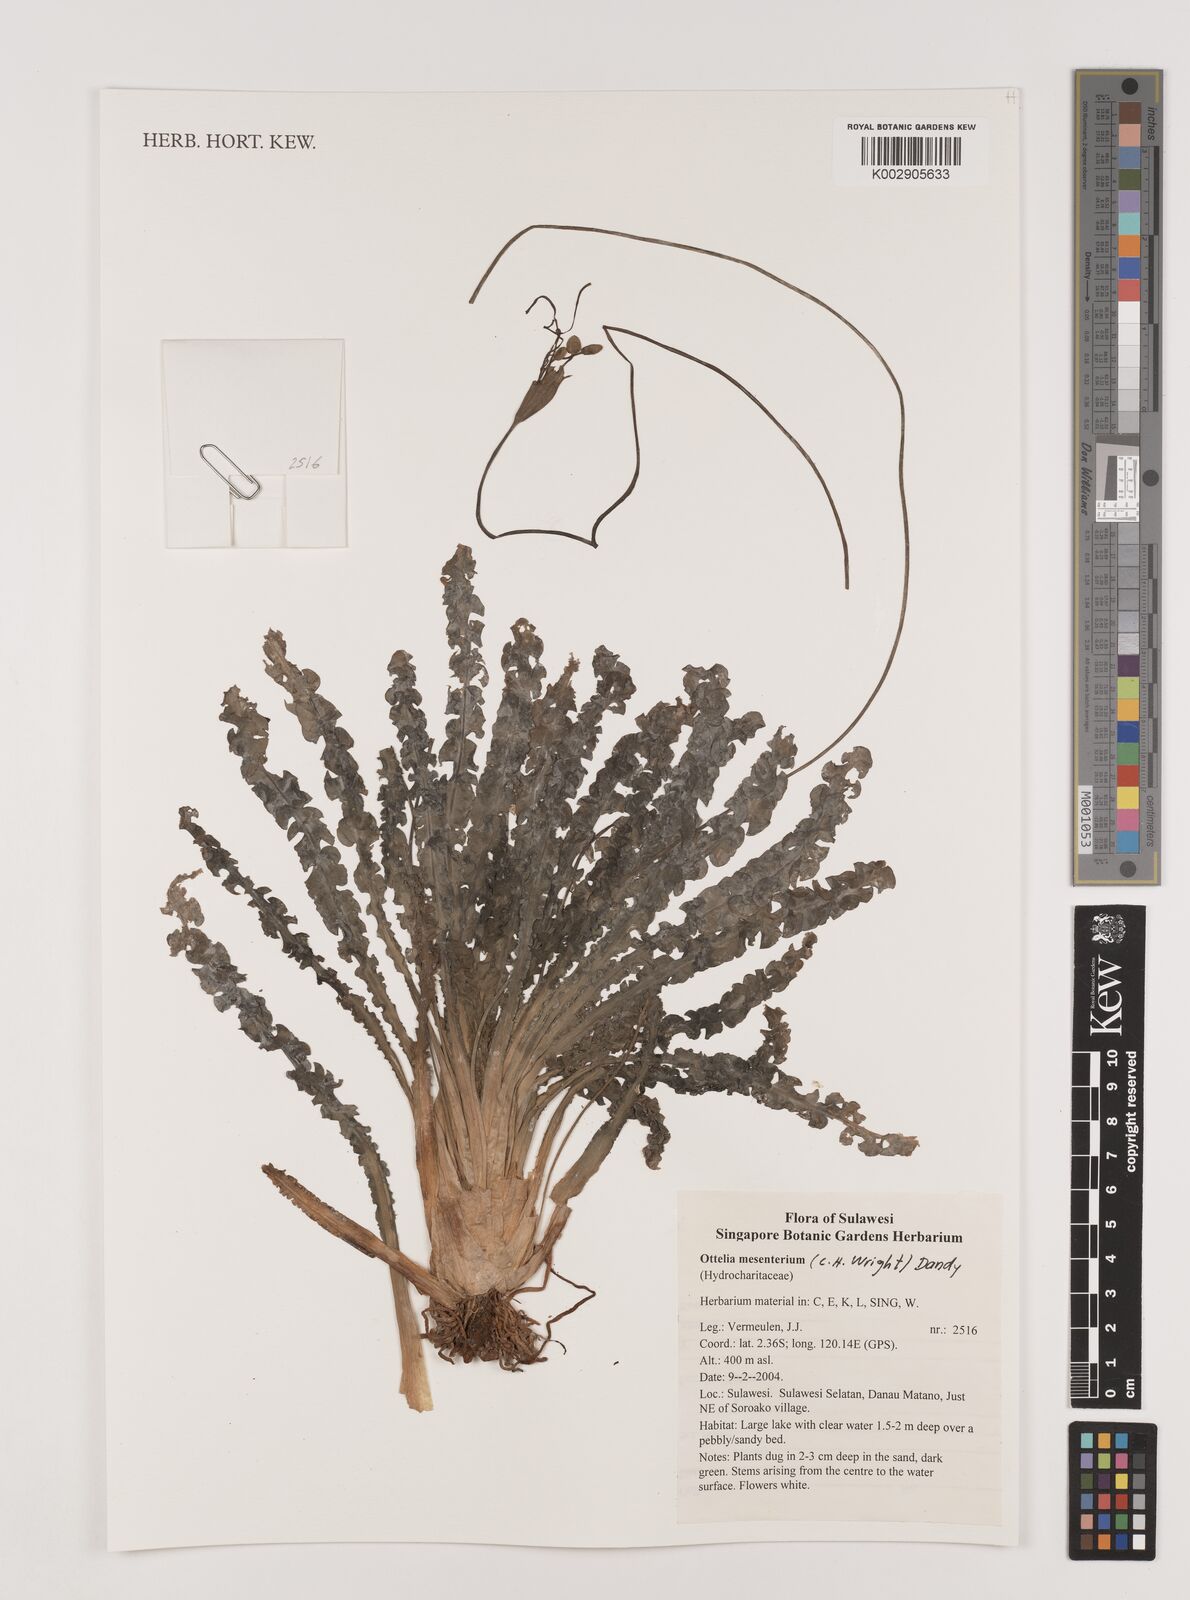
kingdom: Plantae
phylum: Tracheophyta
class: Liliopsida
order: Alismatales
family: Hydrocharitaceae
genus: Ottelia
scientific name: Ottelia mesenterium
